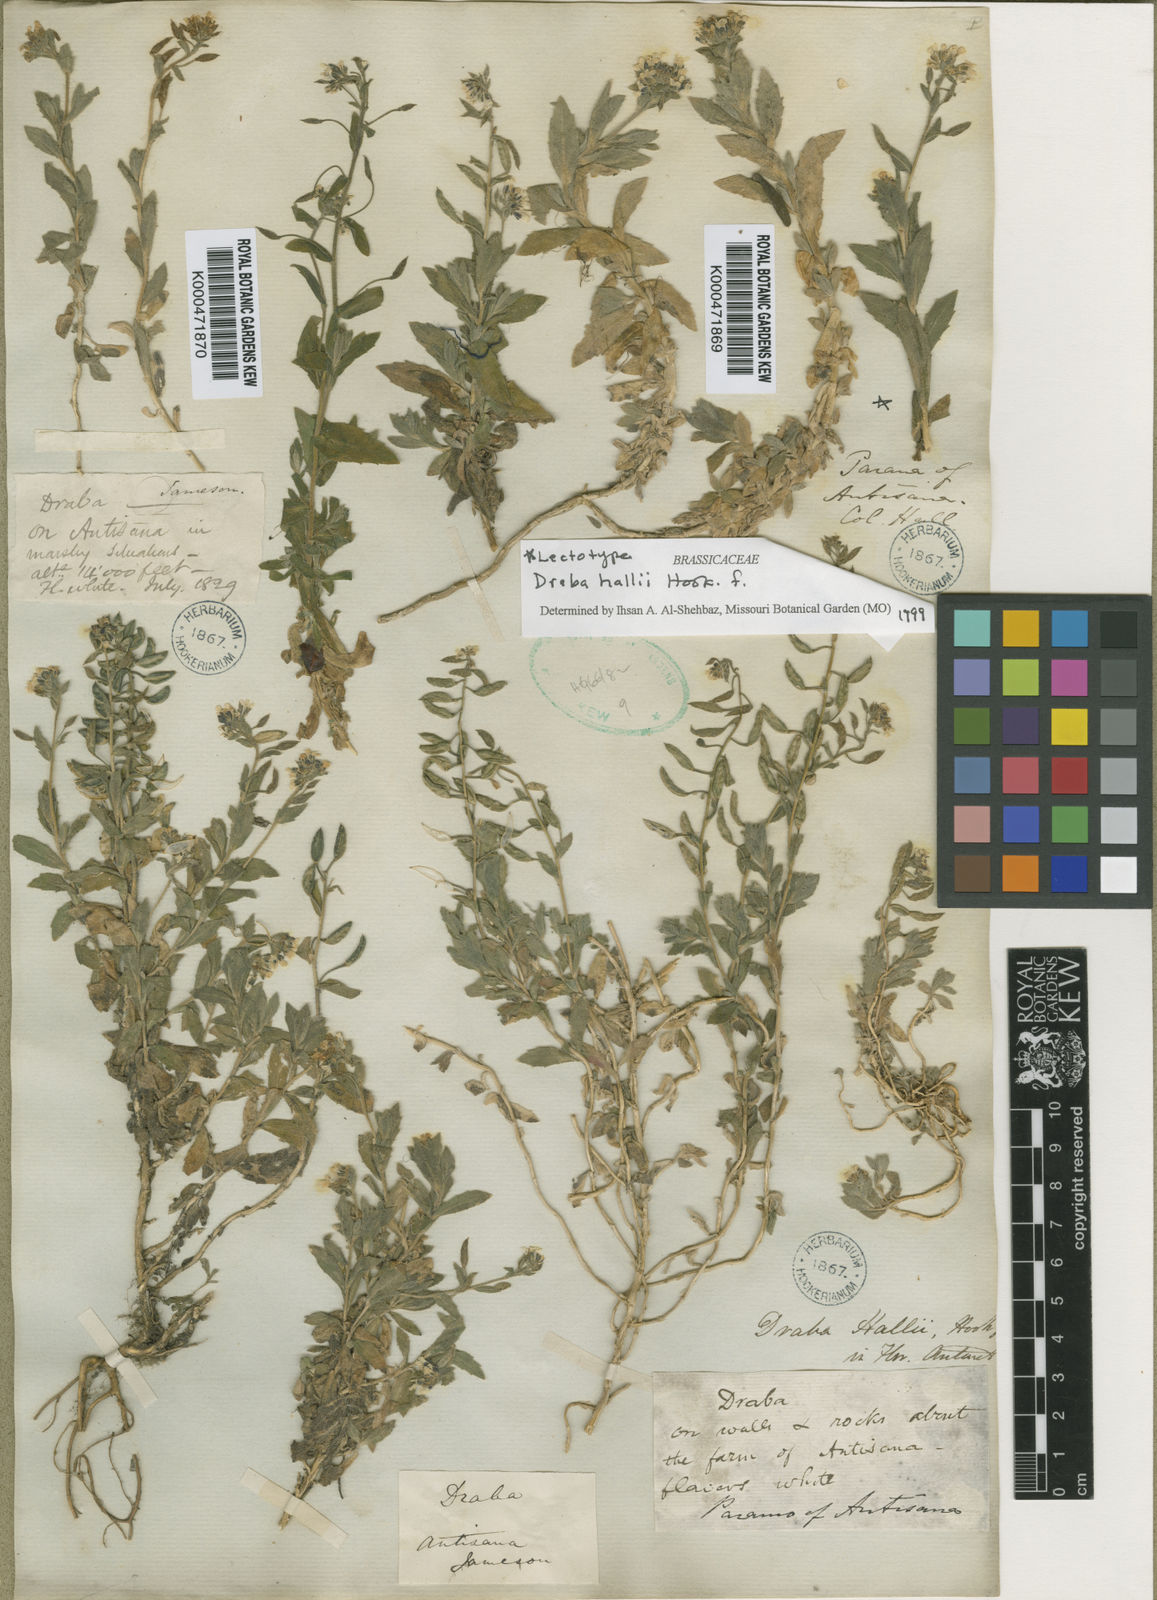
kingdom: Plantae
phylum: Tracheophyta
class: Magnoliopsida
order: Brassicales
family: Brassicaceae
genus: Draba
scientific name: Draba hallii
